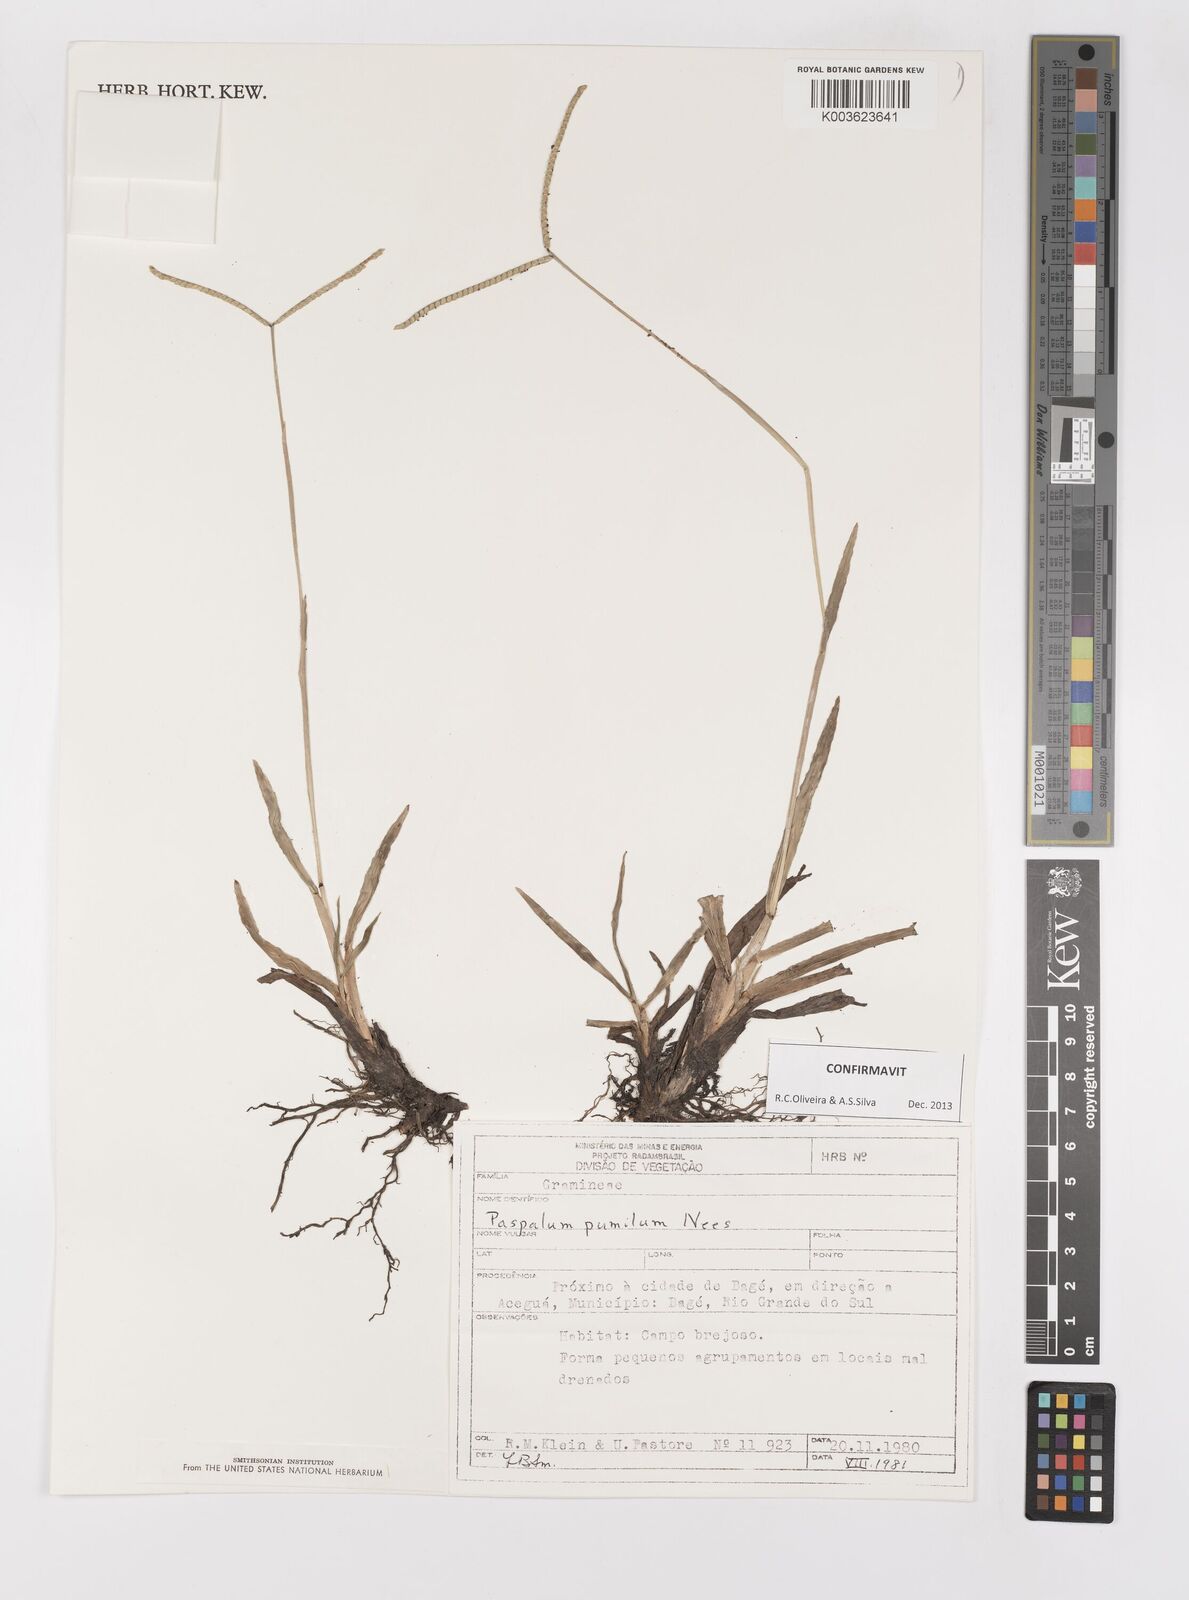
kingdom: Plantae
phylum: Tracheophyta
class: Liliopsida
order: Poales
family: Poaceae
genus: Paspalum
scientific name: Paspalum pumilum
